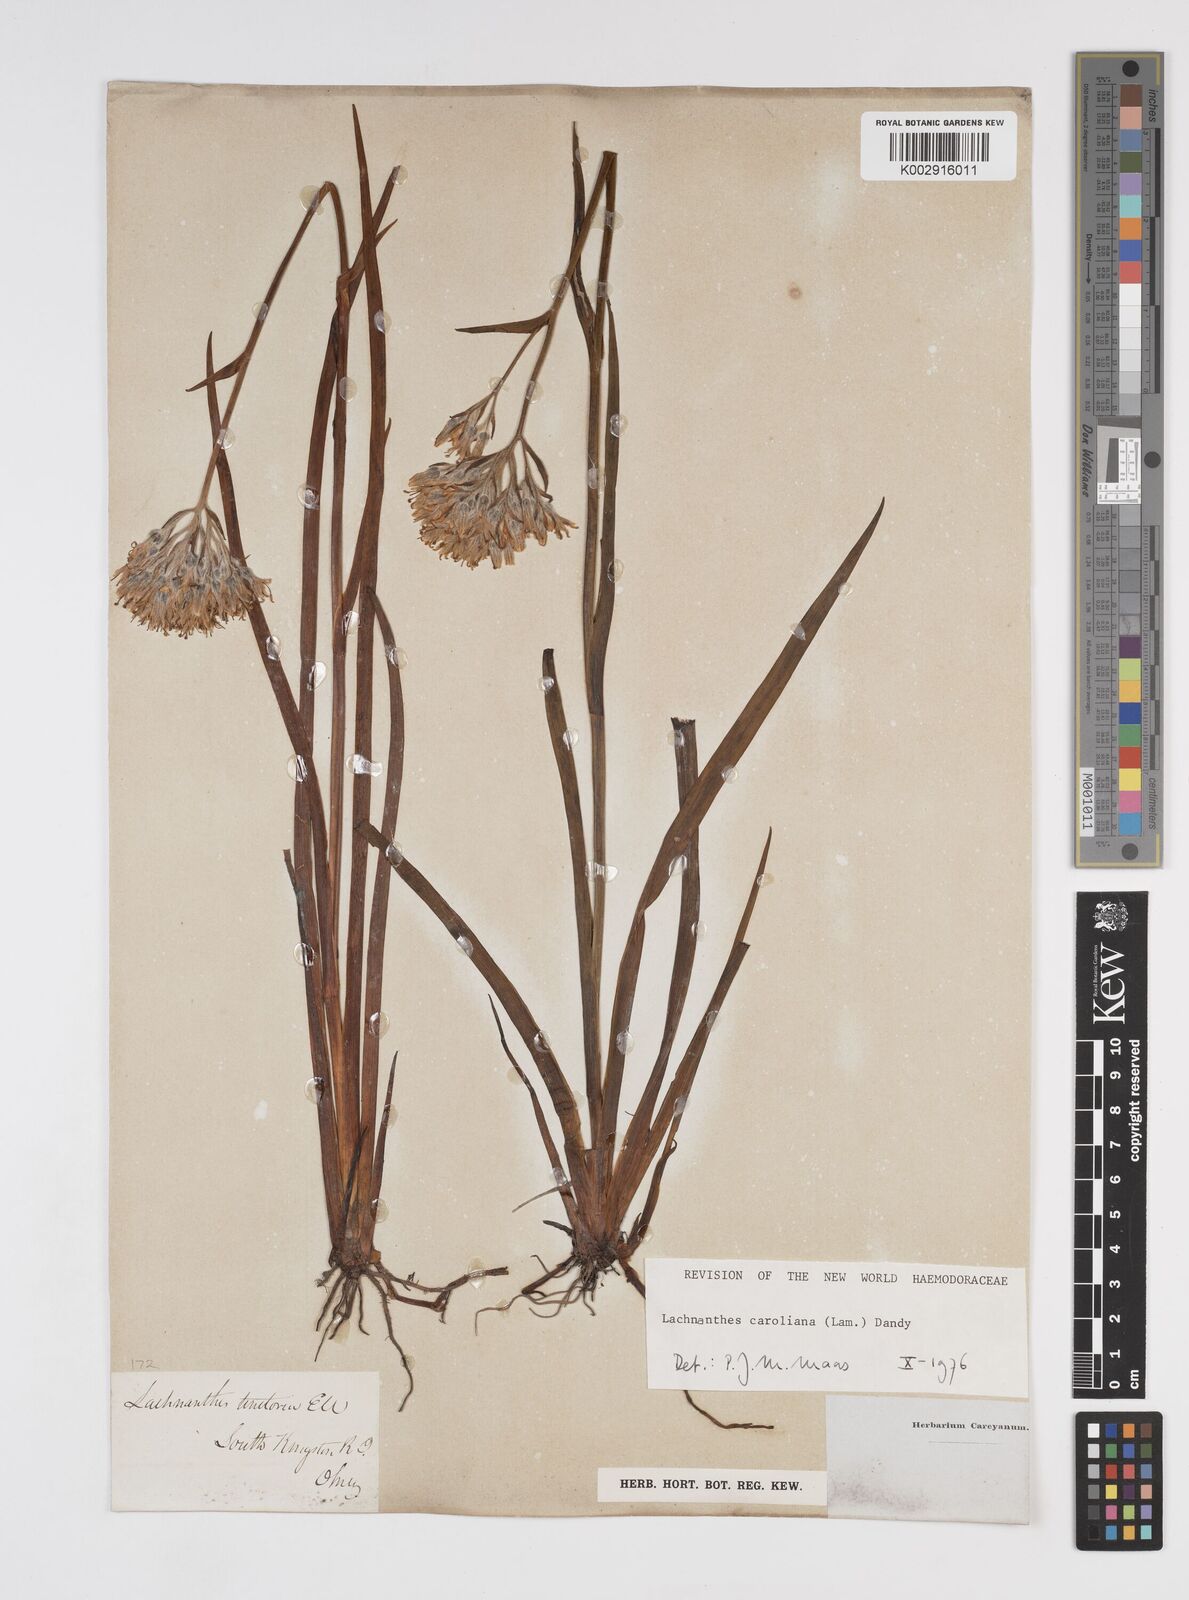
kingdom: Plantae
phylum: Tracheophyta
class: Liliopsida
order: Commelinales
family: Haemodoraceae
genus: Lachnanthes
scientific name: Lachnanthes caroliniana
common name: Carolina redroot
